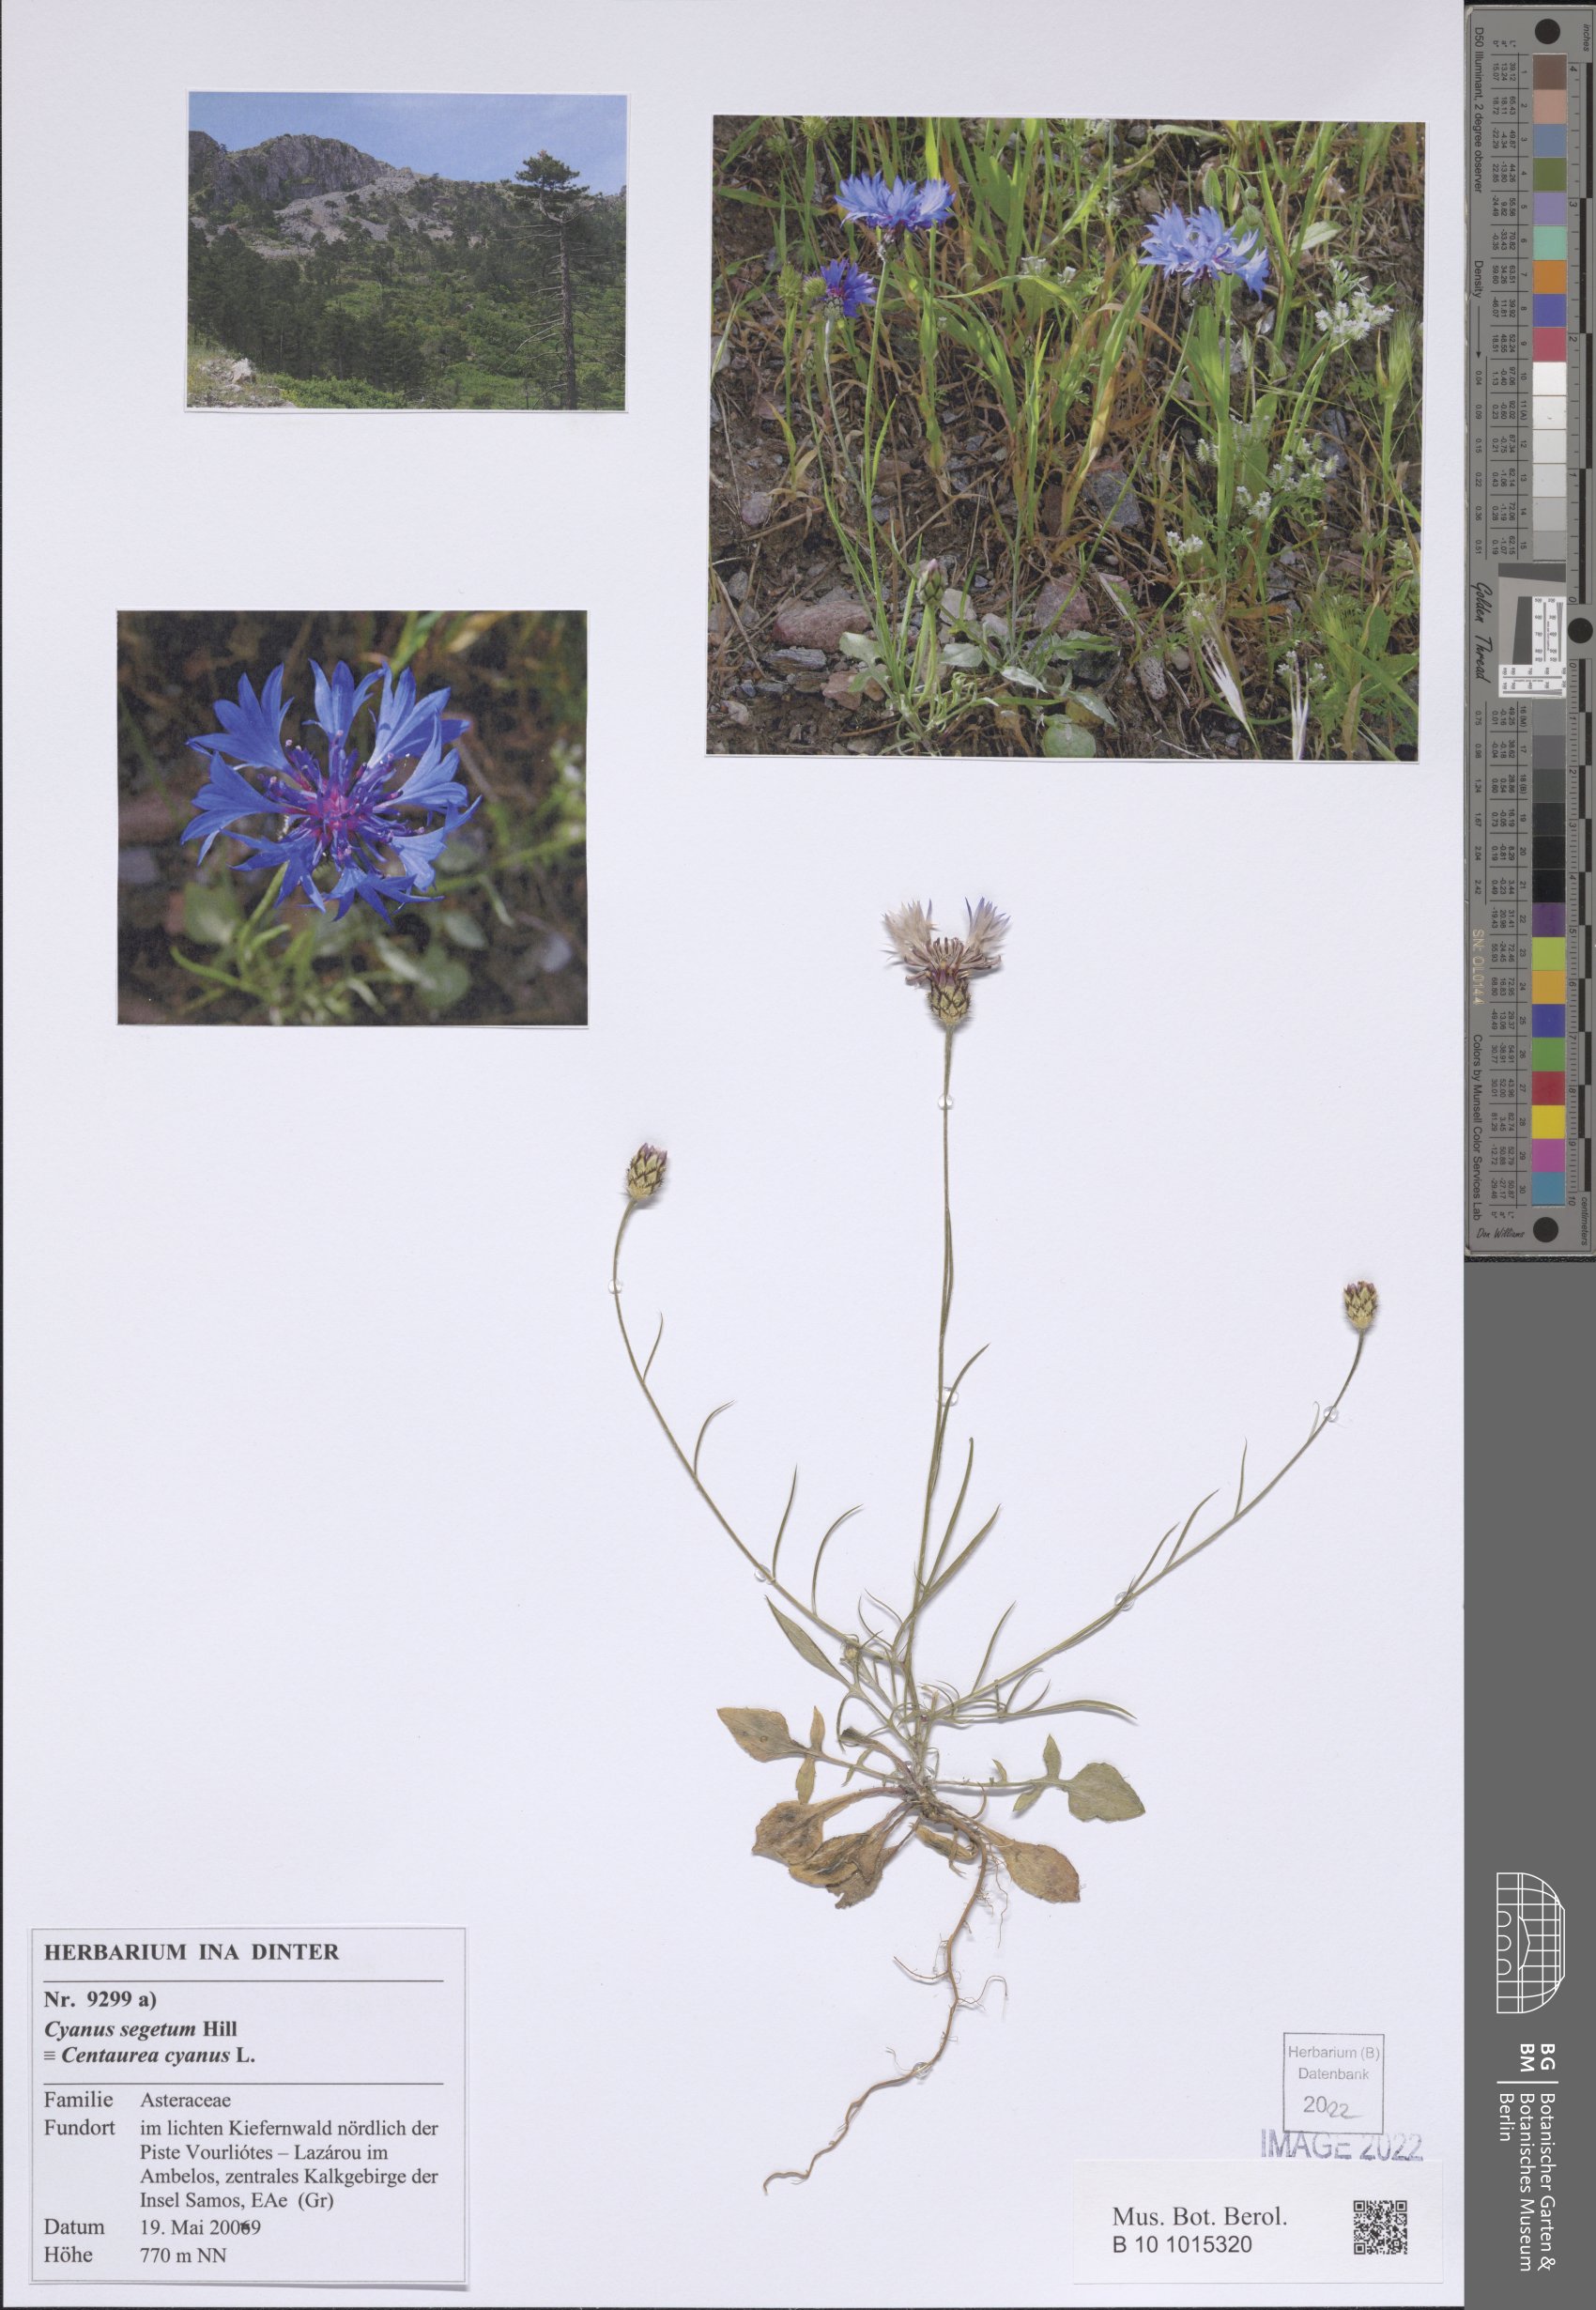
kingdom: Plantae
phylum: Tracheophyta
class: Magnoliopsida
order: Asterales
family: Asteraceae
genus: Centaurea
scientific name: Centaurea cyanus
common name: Cornflower
